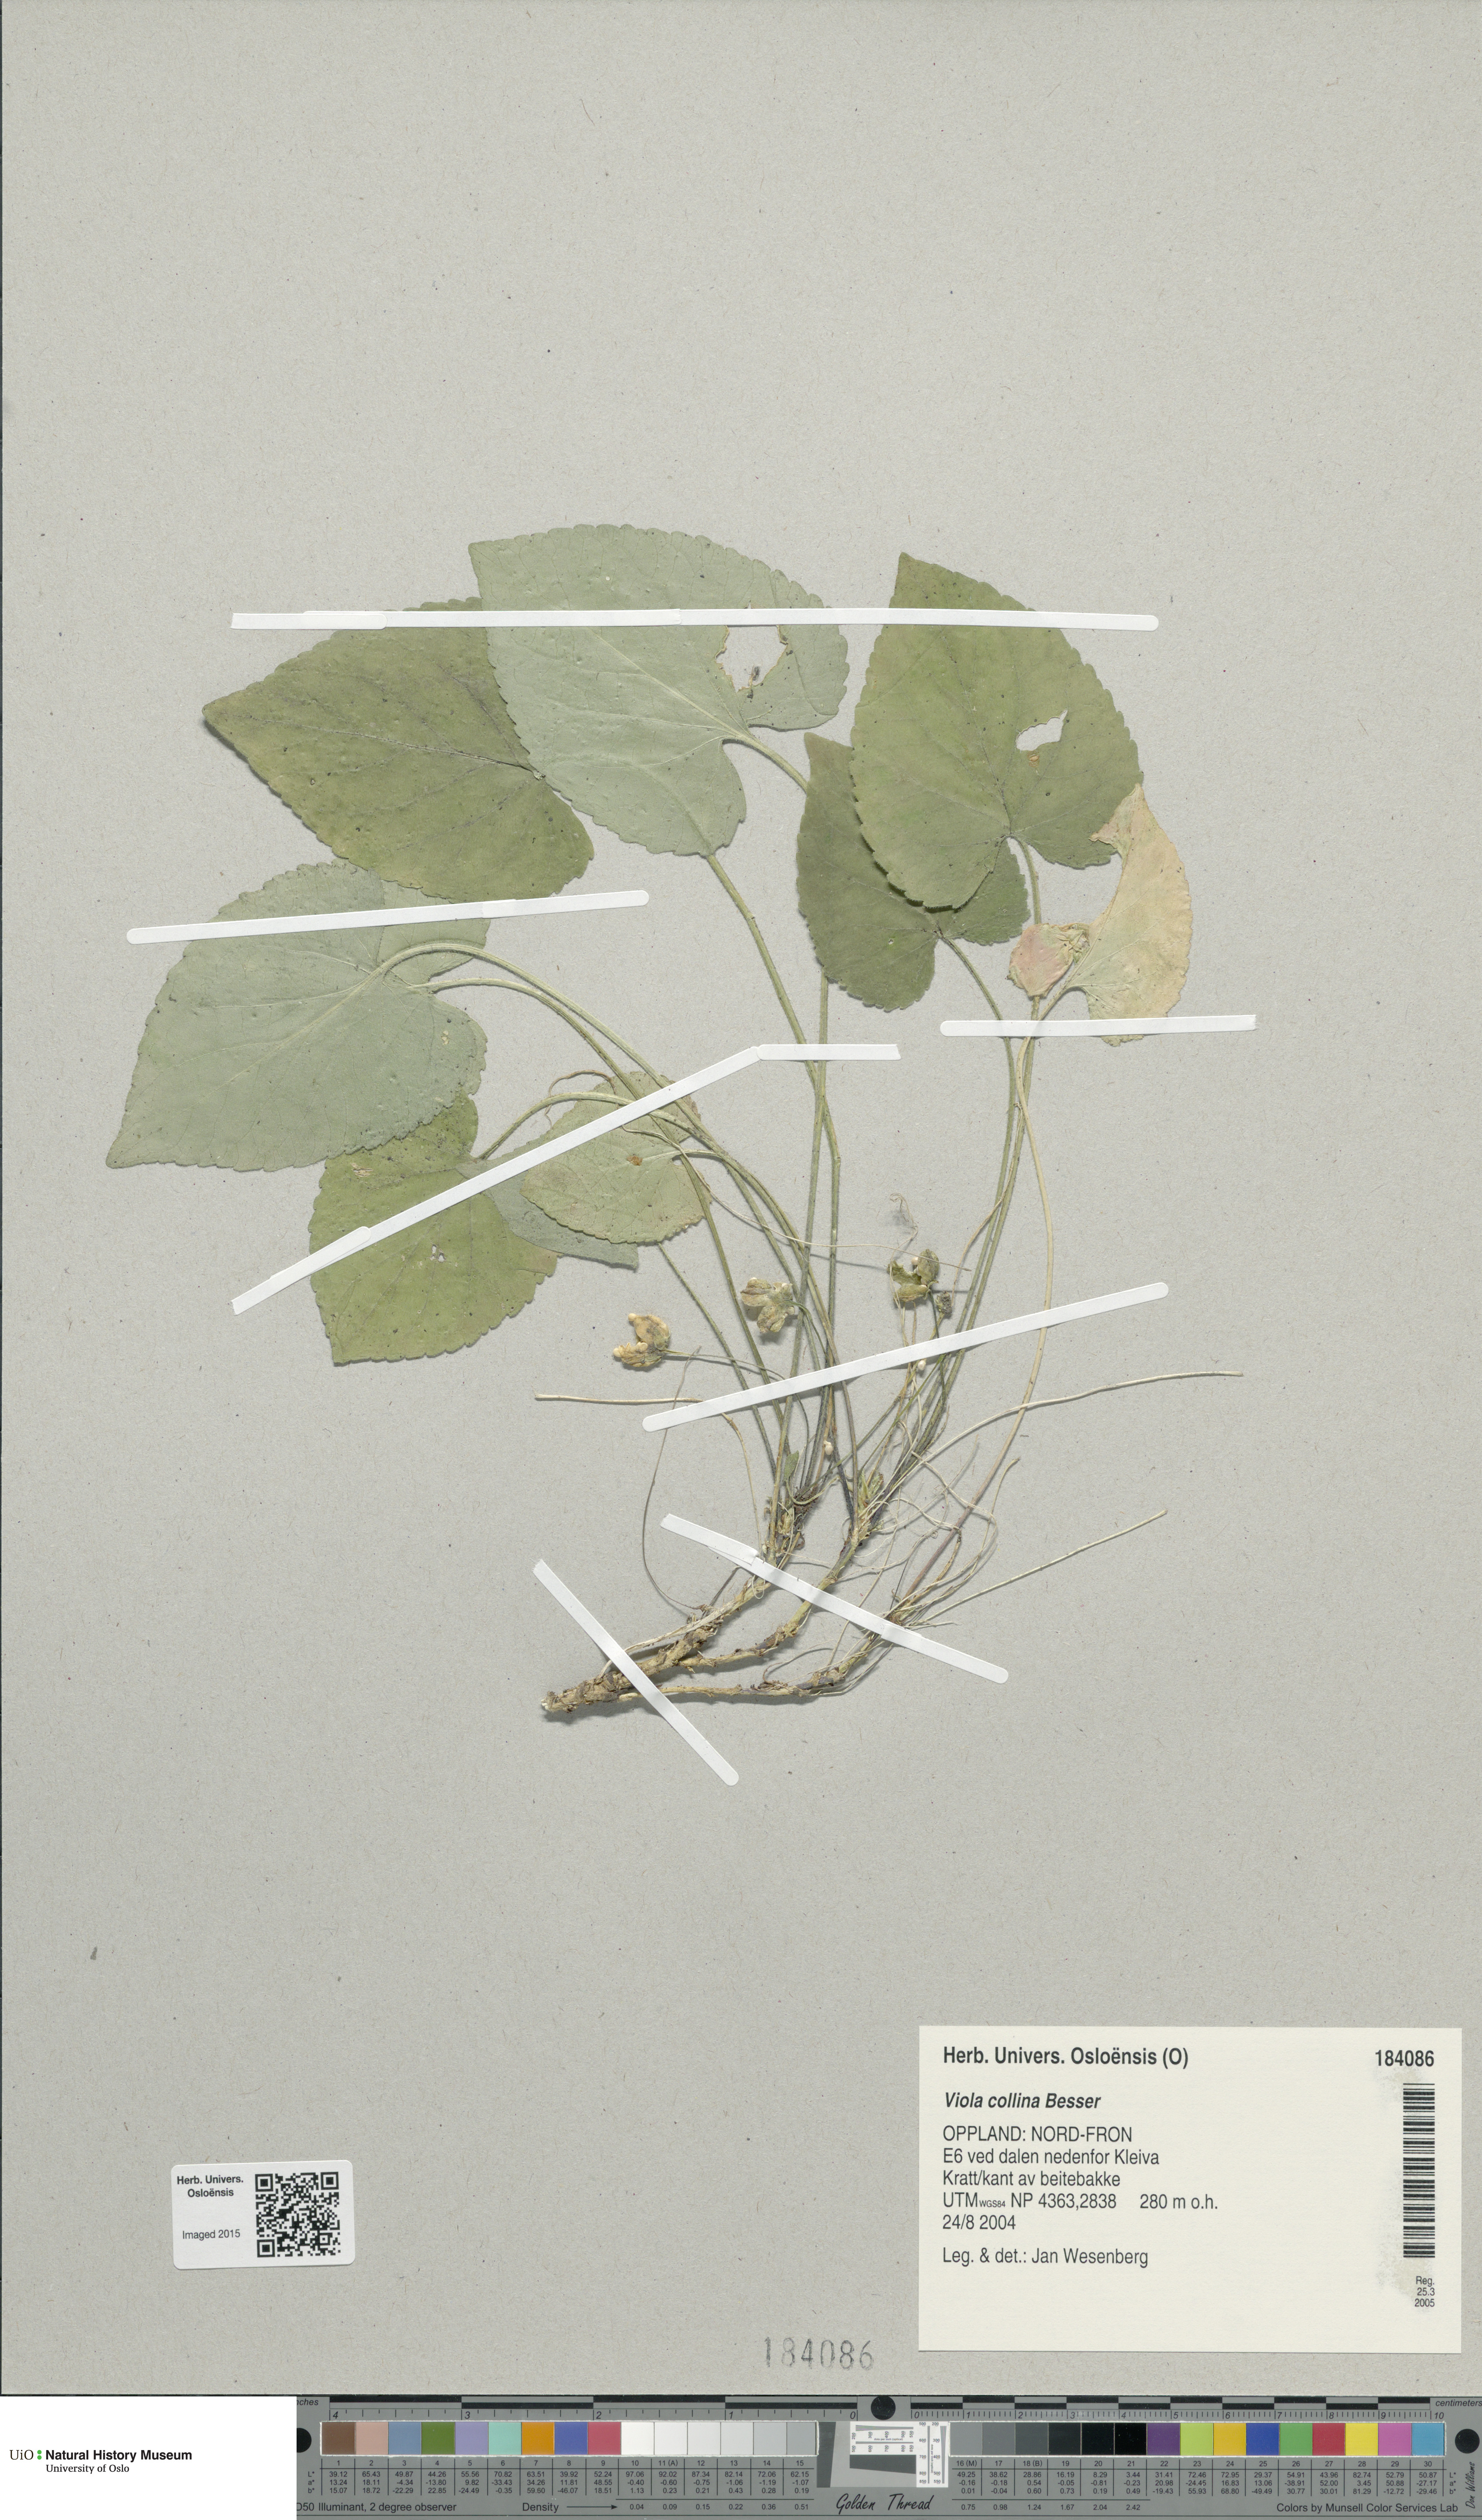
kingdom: Plantae
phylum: Tracheophyta
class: Magnoliopsida
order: Malpighiales
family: Violaceae
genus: Viola
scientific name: Viola collina
